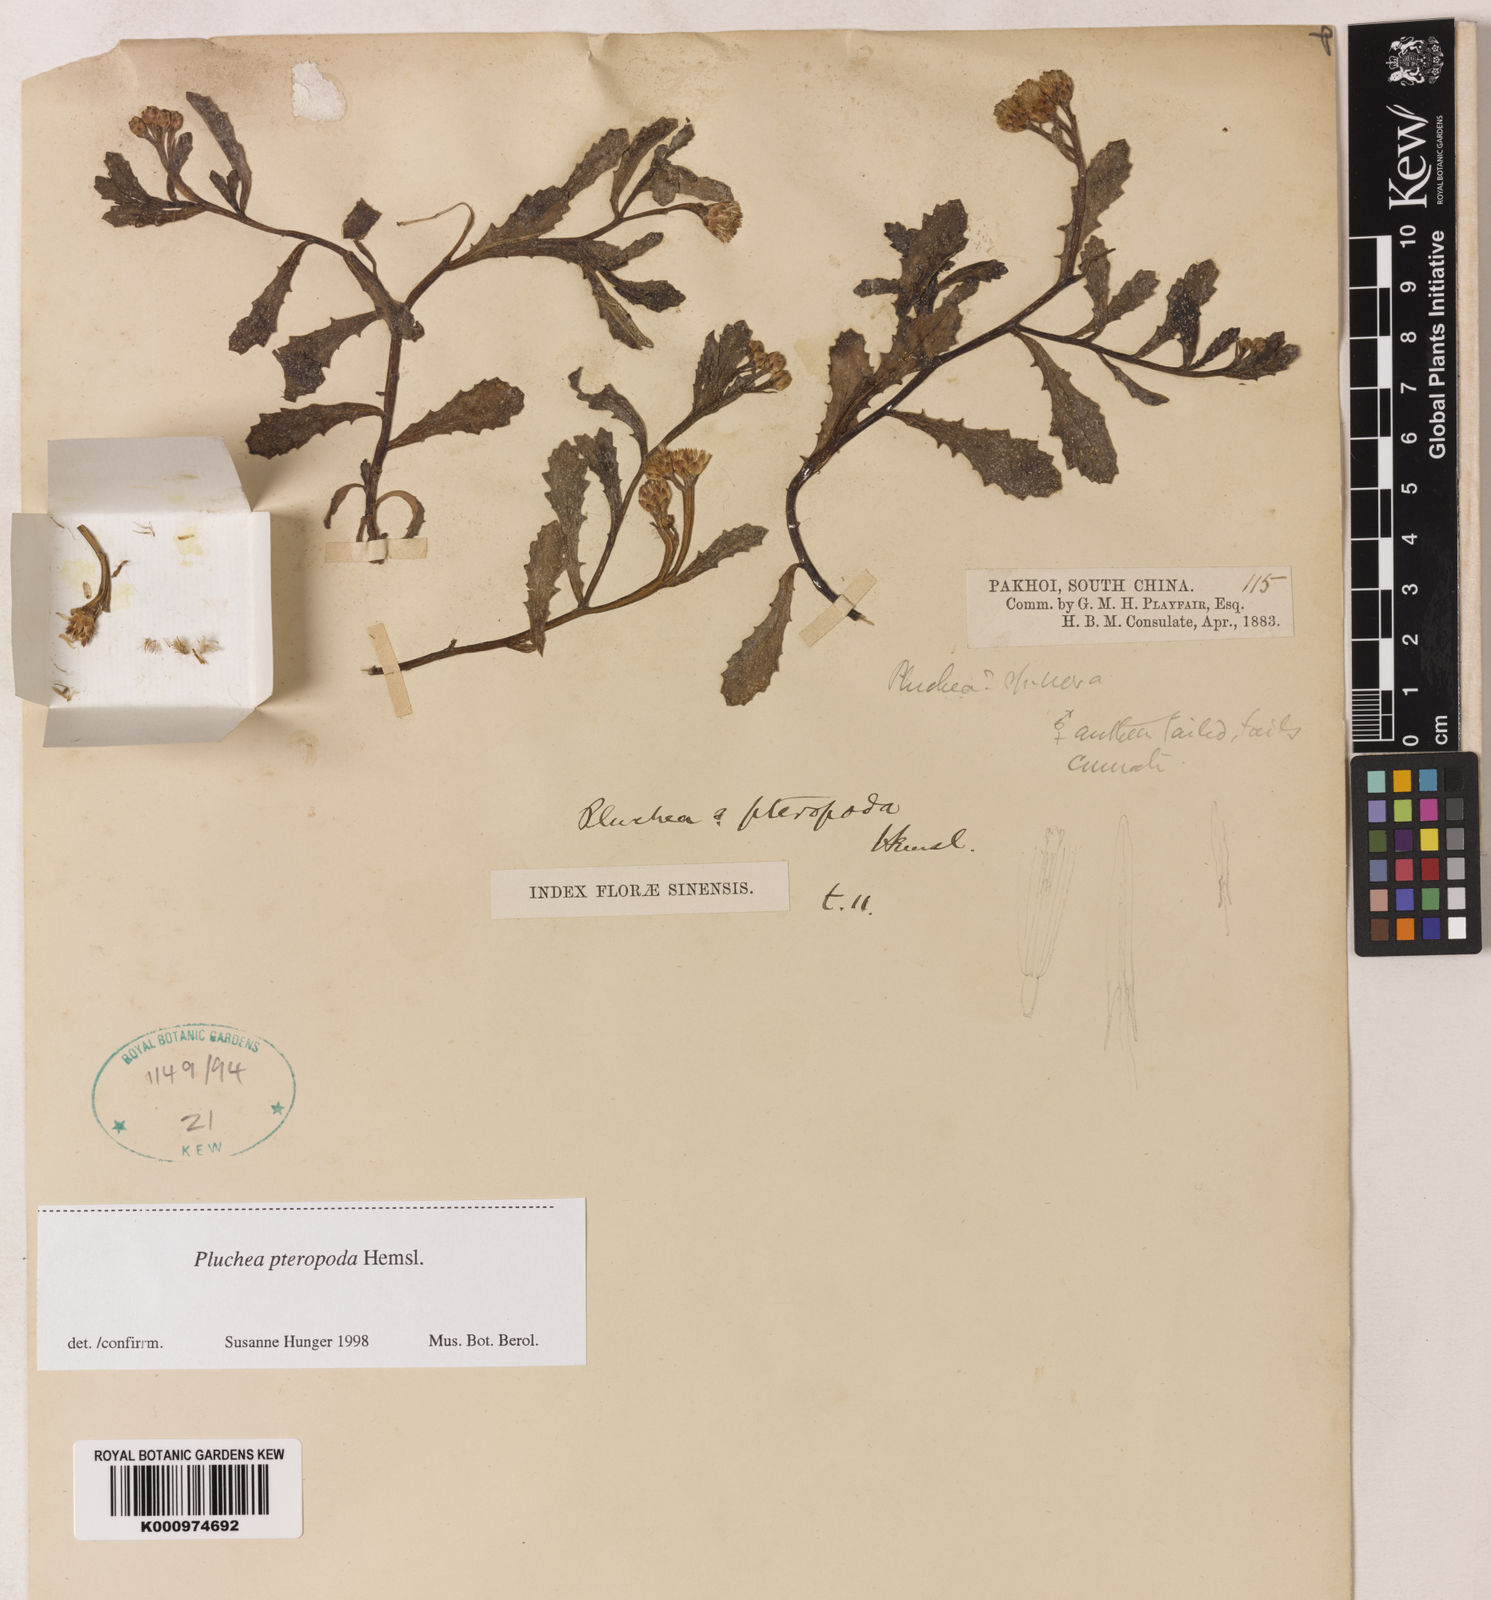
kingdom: Plantae
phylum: Tracheophyta
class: Magnoliopsida
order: Asterales
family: Asteraceae
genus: Pluchea
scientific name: Pluchea pteropoda
